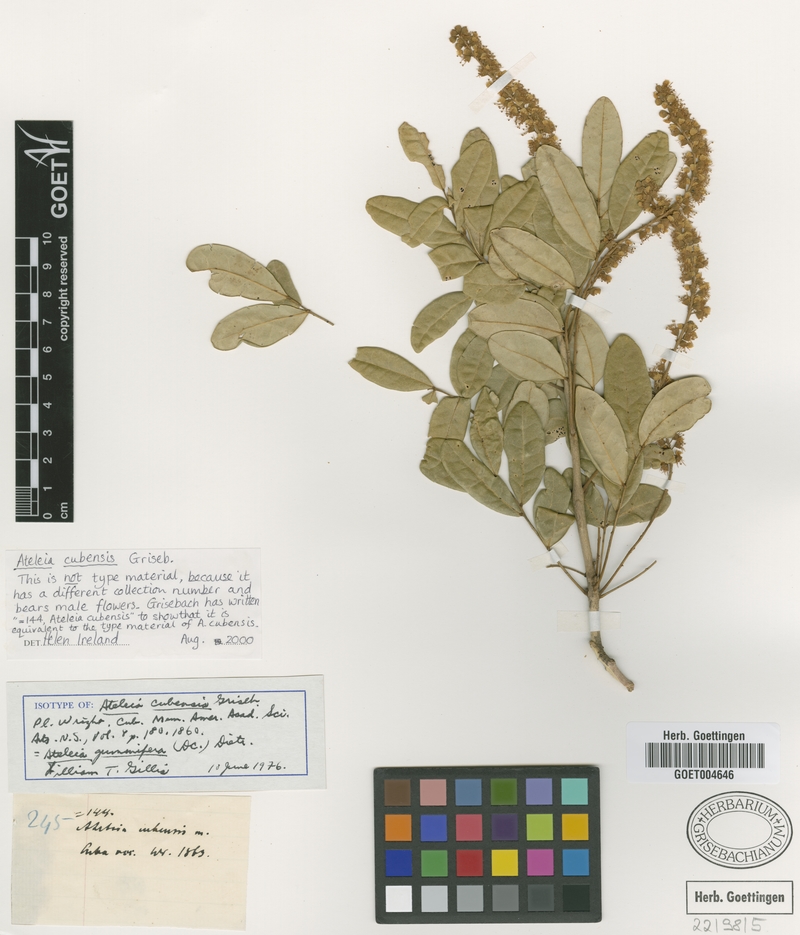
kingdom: Plantae
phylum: Tracheophyta
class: Magnoliopsida
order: Fabales
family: Fabaceae
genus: Ateleia
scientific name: Ateleia cubensis
